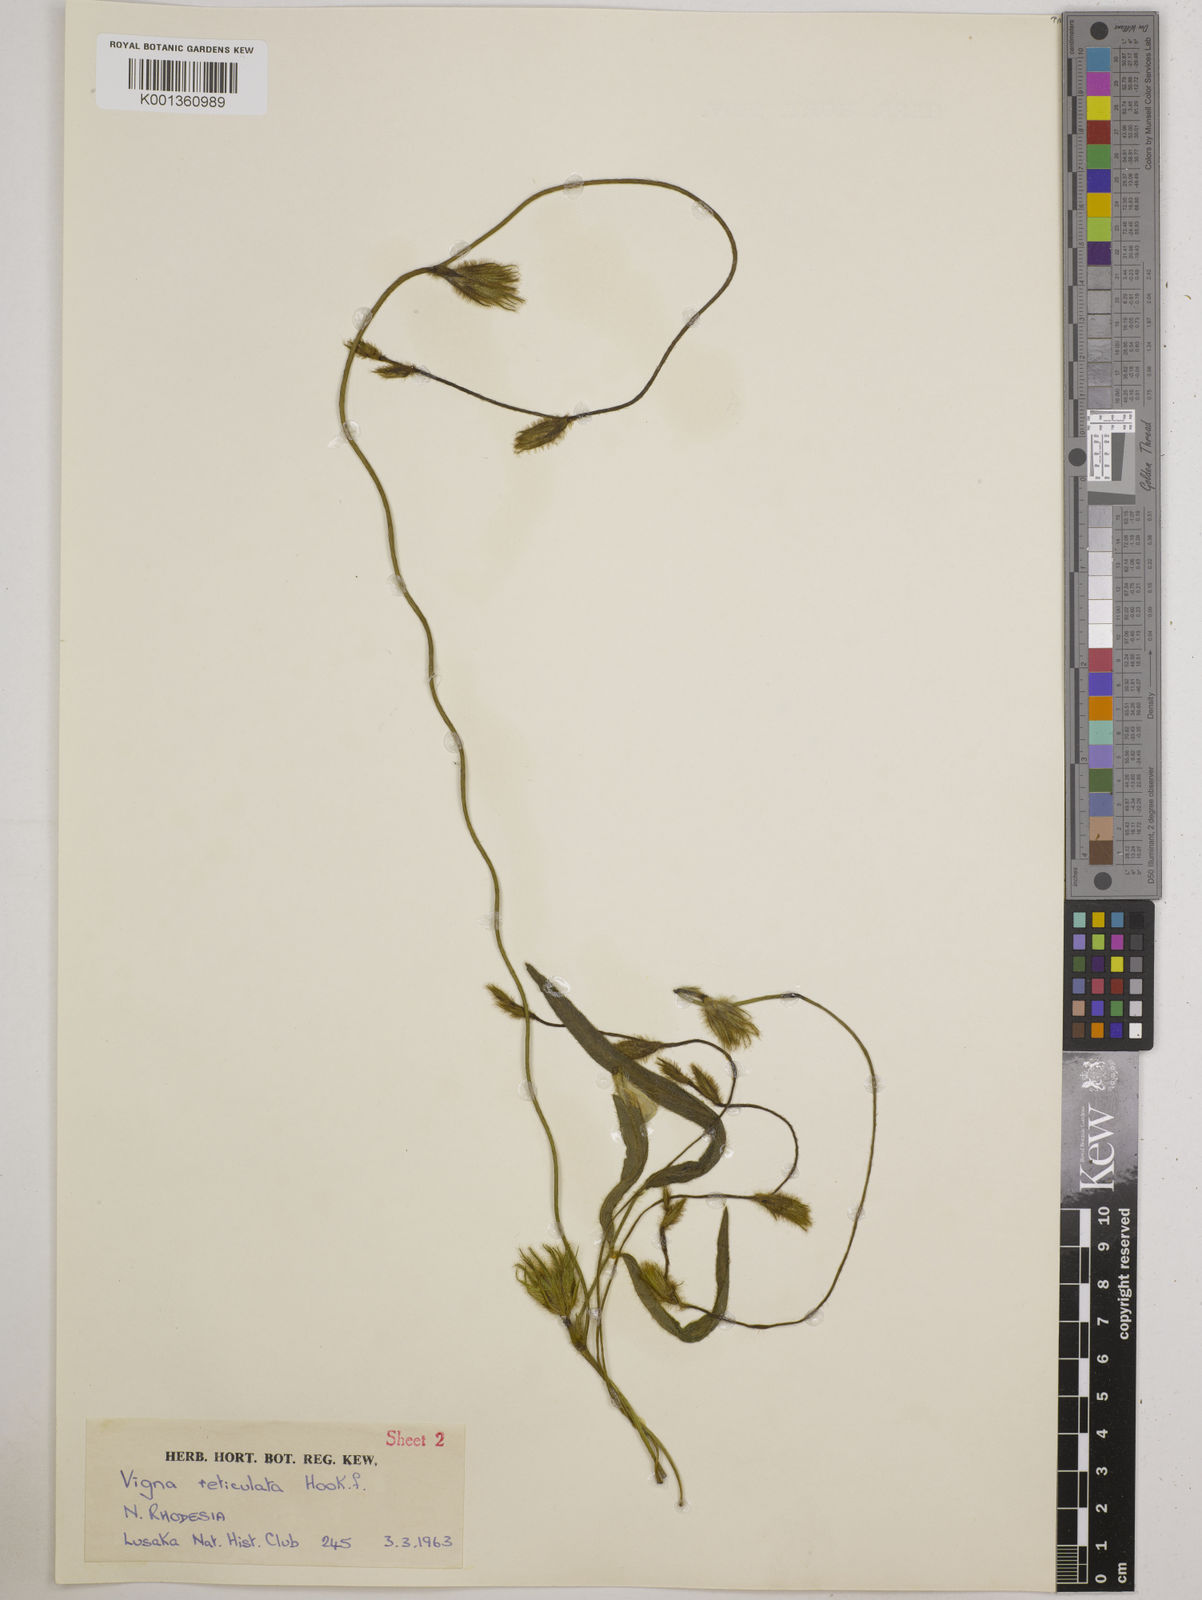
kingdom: Plantae
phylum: Tracheophyta
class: Magnoliopsida
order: Fabales
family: Fabaceae
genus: Vigna
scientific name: Vigna reticulata
